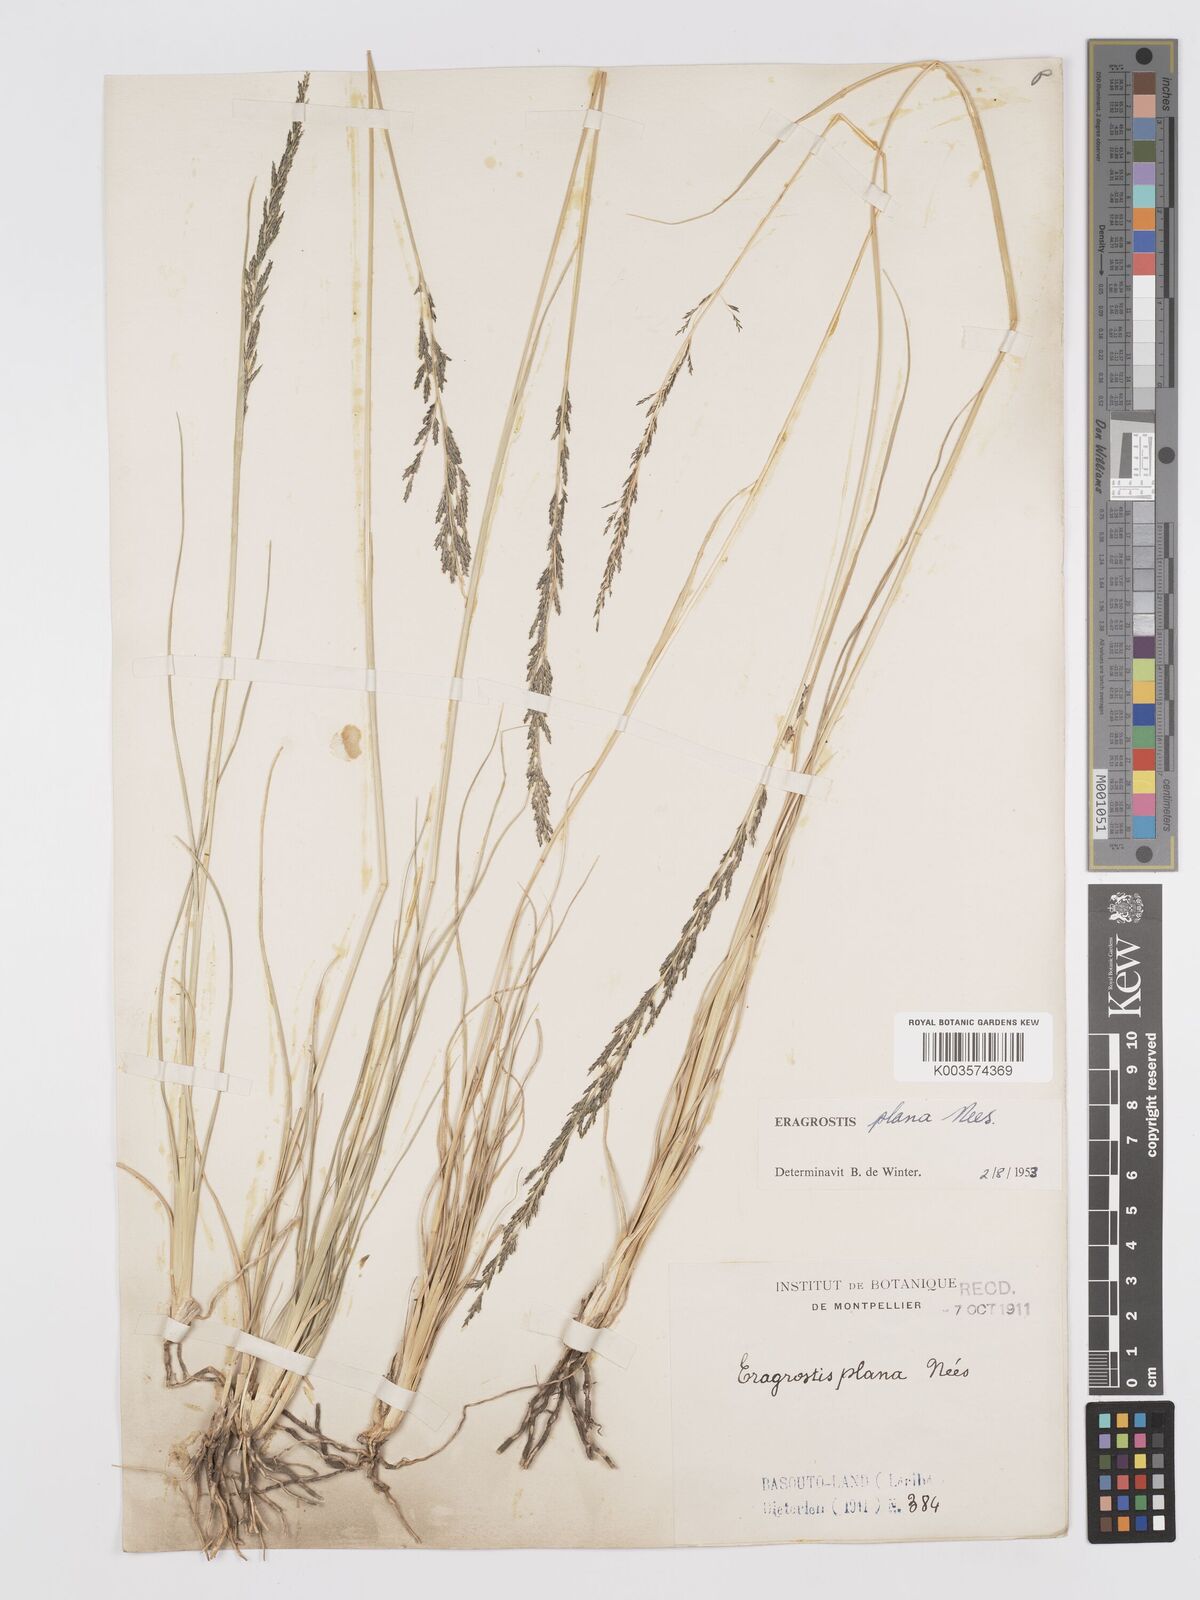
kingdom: Plantae
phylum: Tracheophyta
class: Liliopsida
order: Poales
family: Poaceae
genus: Eragrostis
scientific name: Eragrostis plana
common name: South african lovegrass
